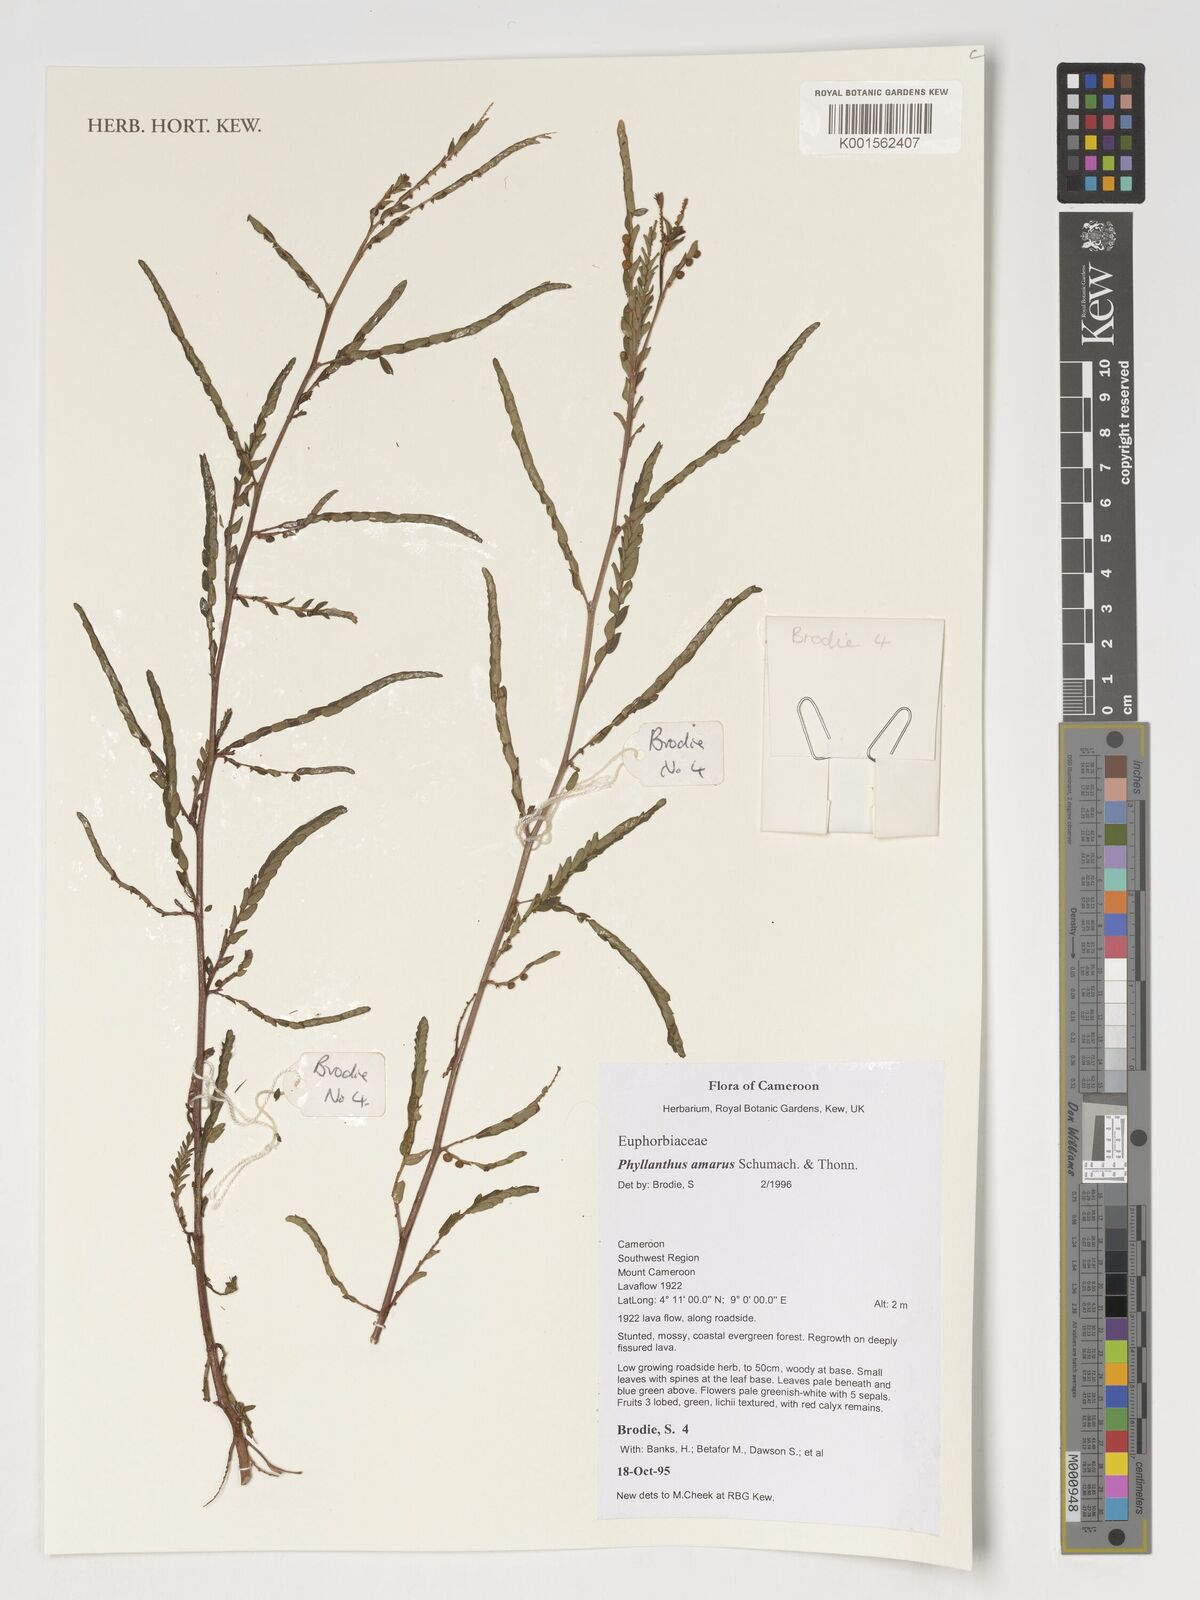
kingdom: Plantae
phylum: Tracheophyta
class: Magnoliopsida
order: Malpighiales
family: Phyllanthaceae
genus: Phyllanthus
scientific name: Phyllanthus amarus
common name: Carry me seed
